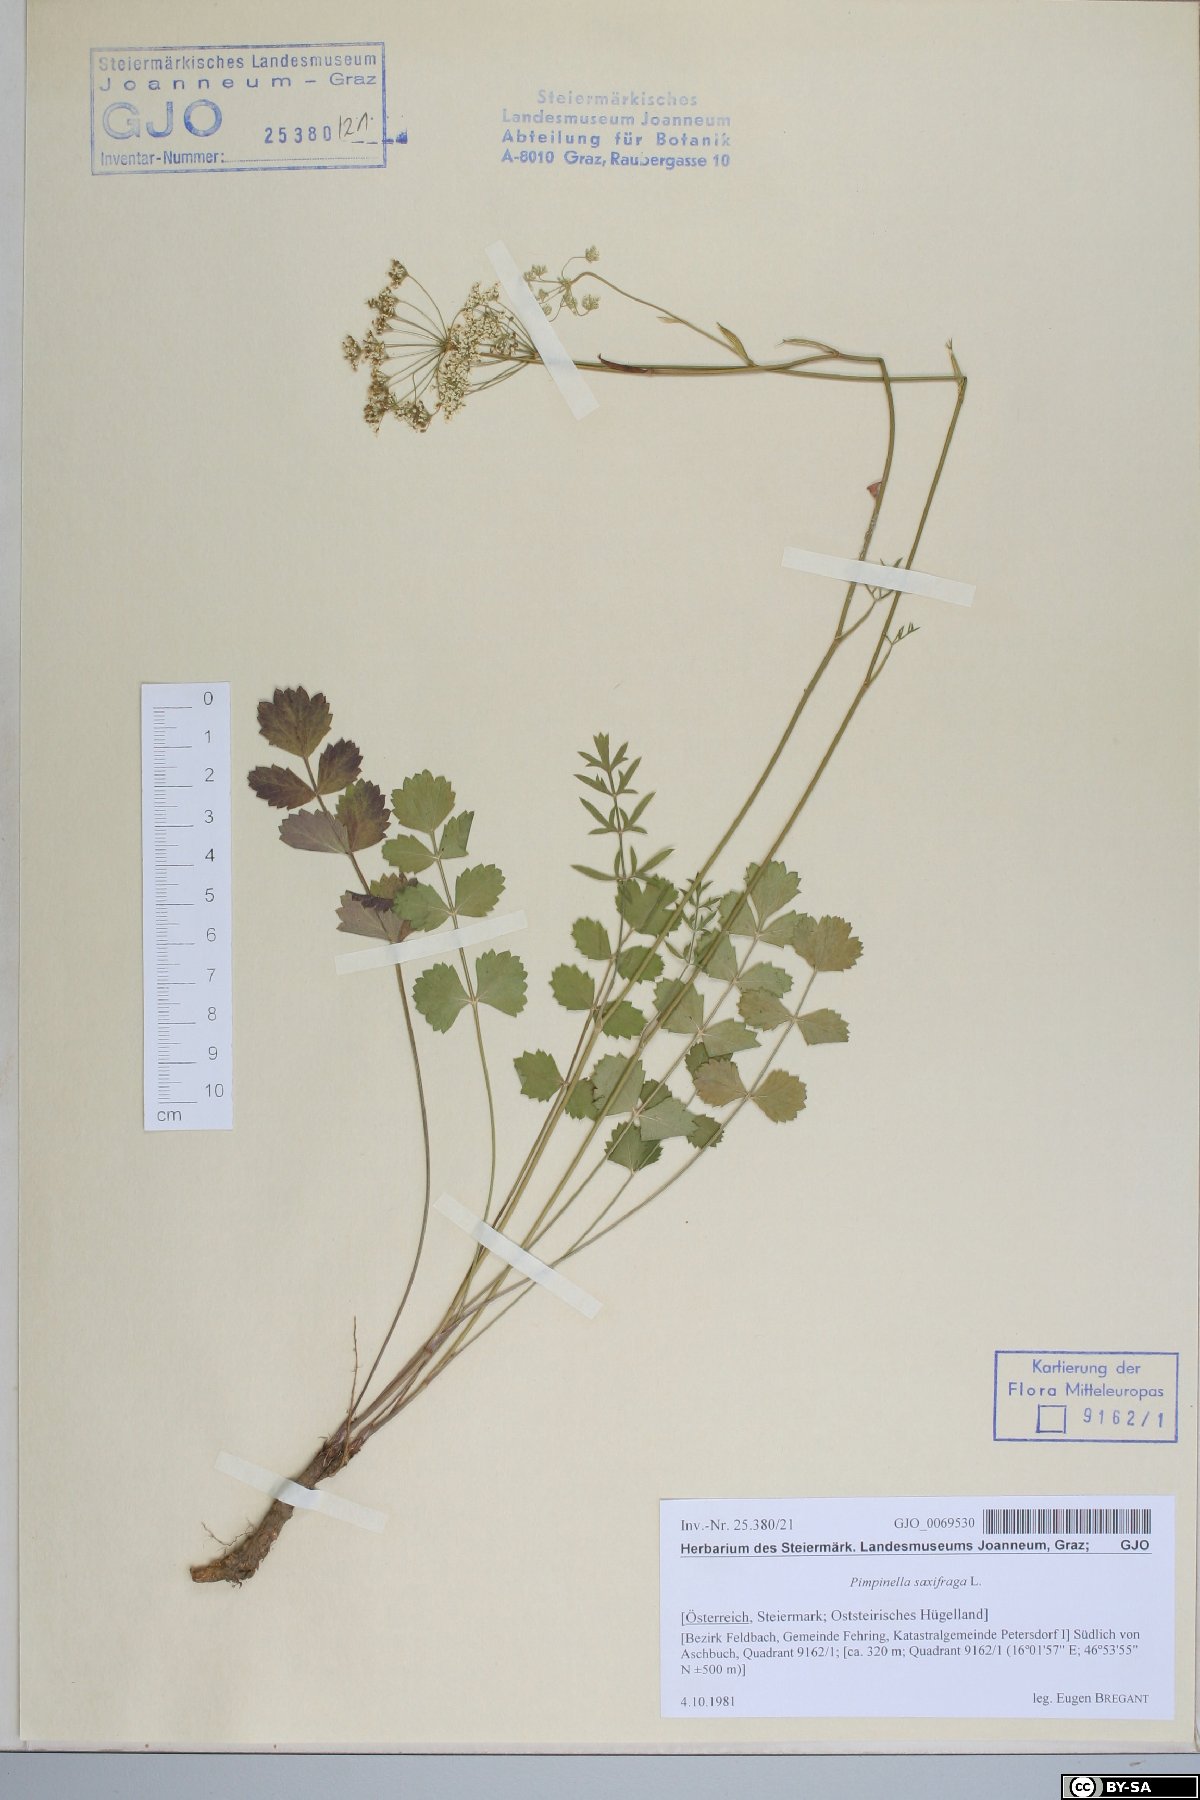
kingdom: Plantae
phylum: Tracheophyta
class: Magnoliopsida
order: Apiales
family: Apiaceae
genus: Pimpinella
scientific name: Pimpinella saxifraga
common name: Burnet-saxifrage
